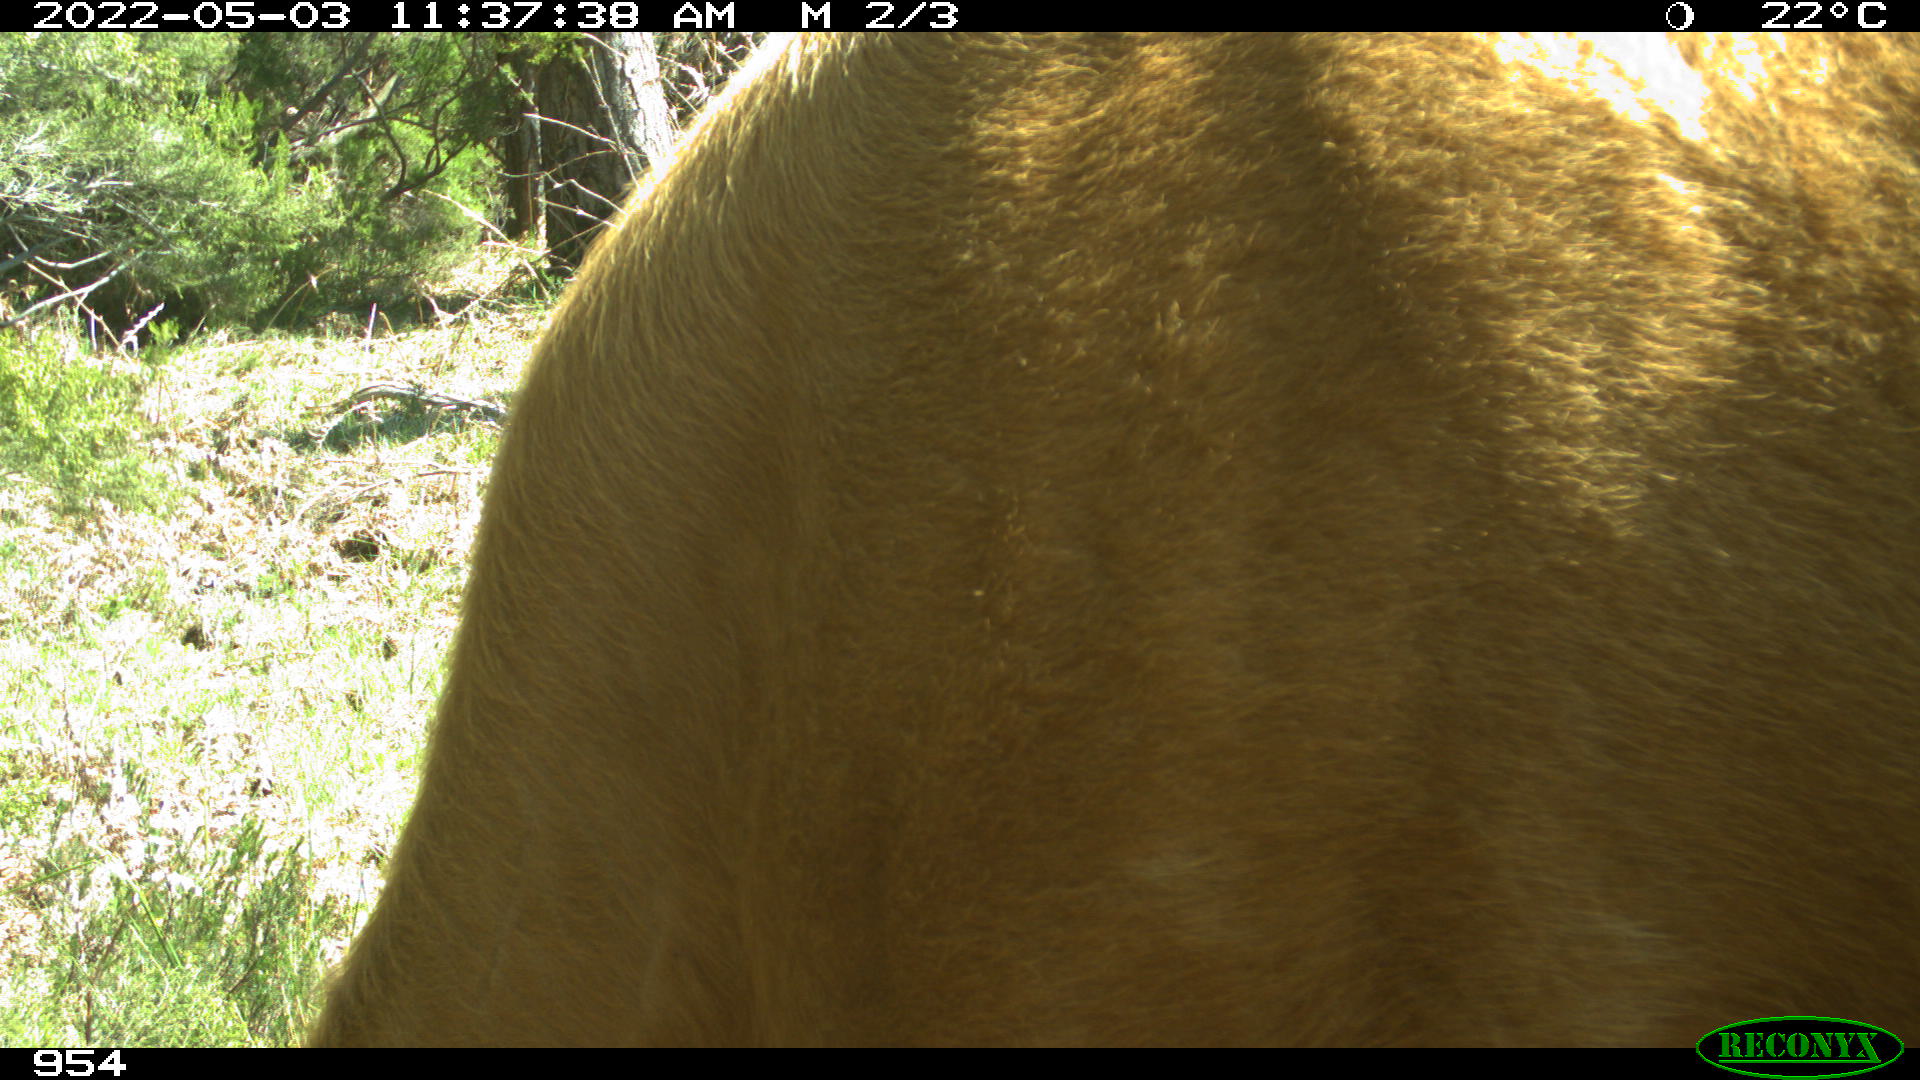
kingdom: Animalia
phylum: Chordata
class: Mammalia
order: Carnivora
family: Canidae
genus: Canis
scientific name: Canis lupus
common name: Gray wolf
